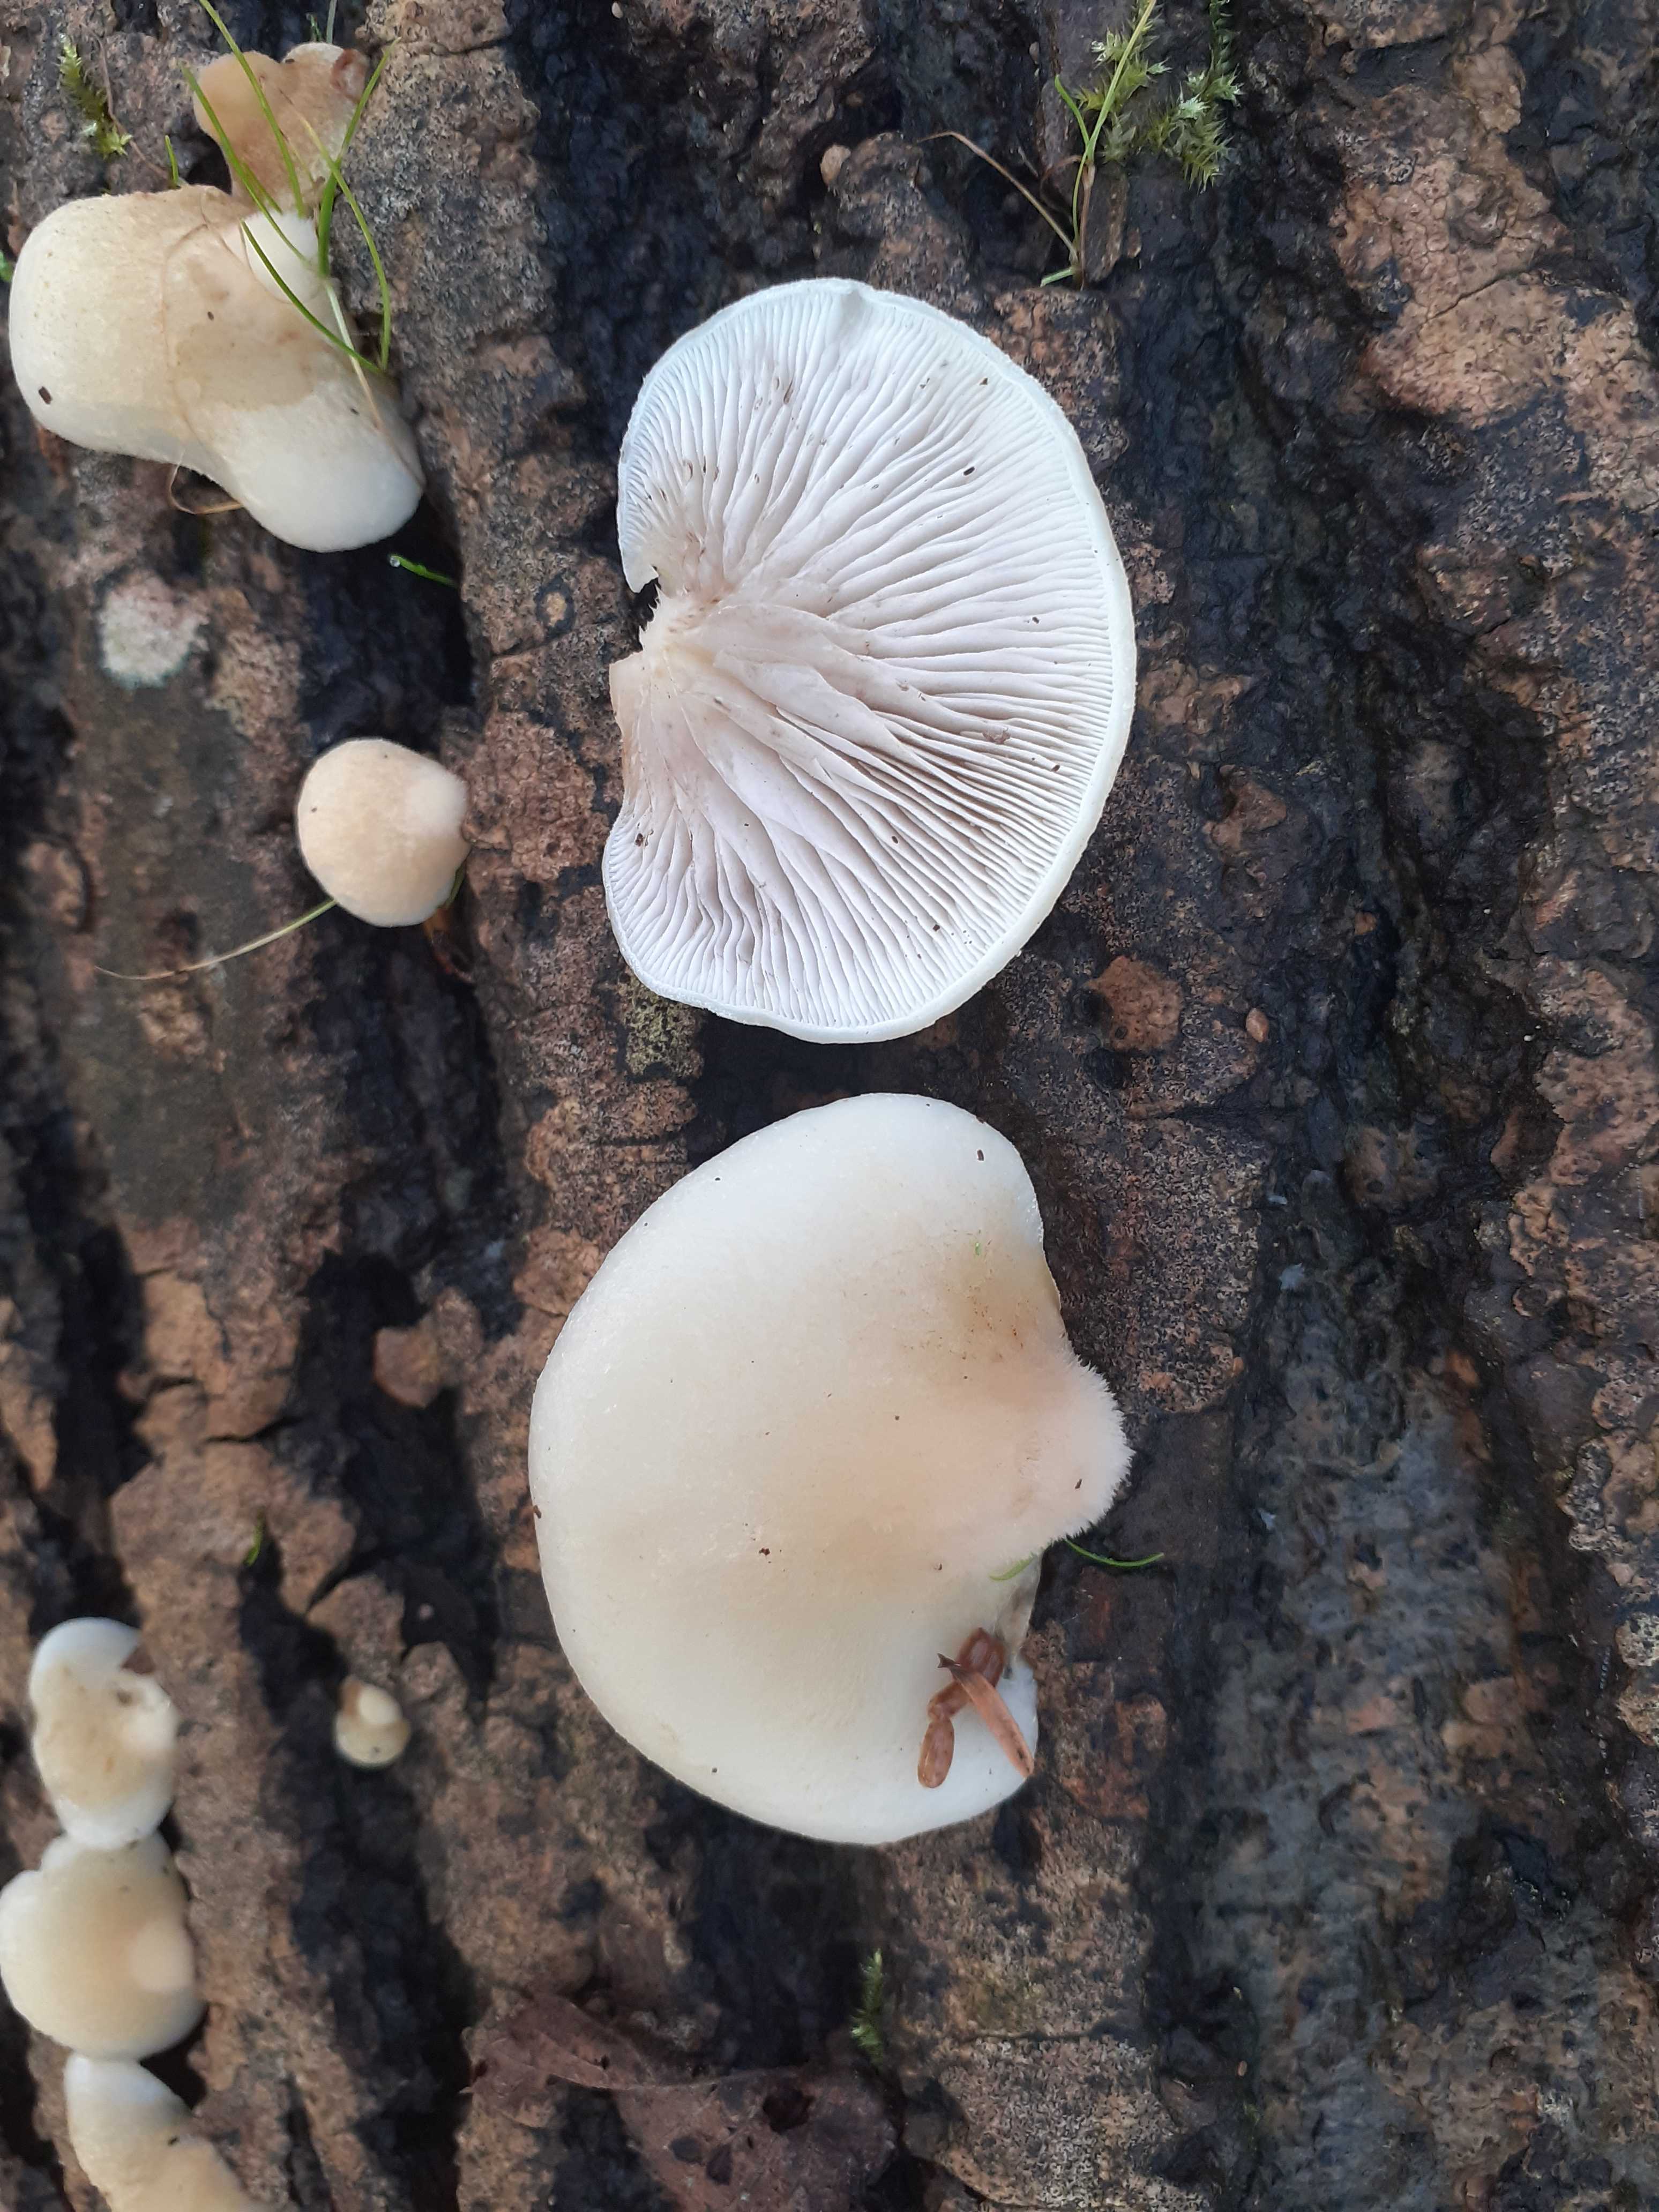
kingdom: Fungi
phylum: Basidiomycota
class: Agaricomycetes
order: Agaricales
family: Crepidotaceae
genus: Crepidotus
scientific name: Crepidotus mollis
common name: blød muslingesvamp
